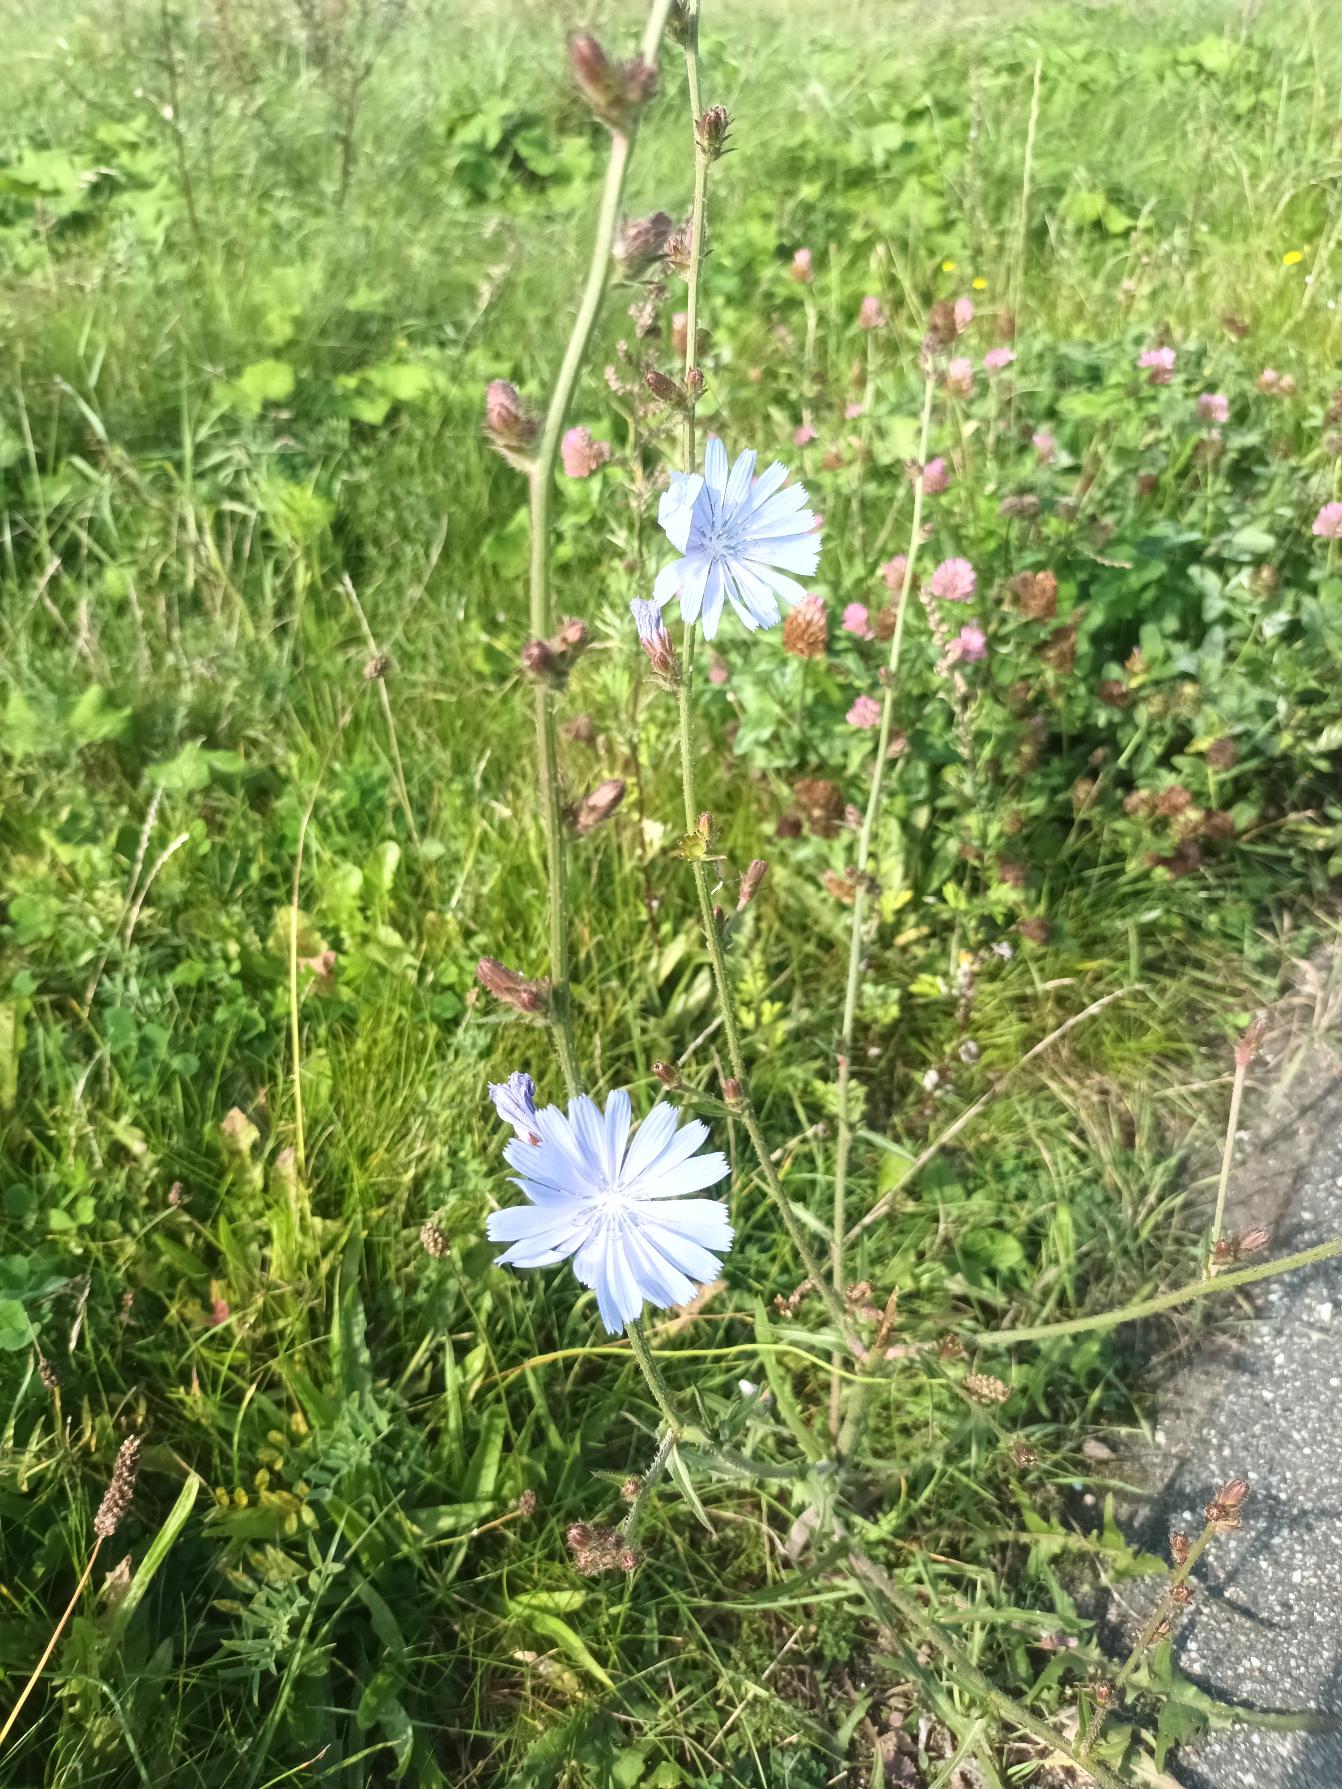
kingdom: Plantae
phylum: Tracheophyta
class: Magnoliopsida
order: Asterales
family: Asteraceae
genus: Cichorium
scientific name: Cichorium intybus
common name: Cikorie
